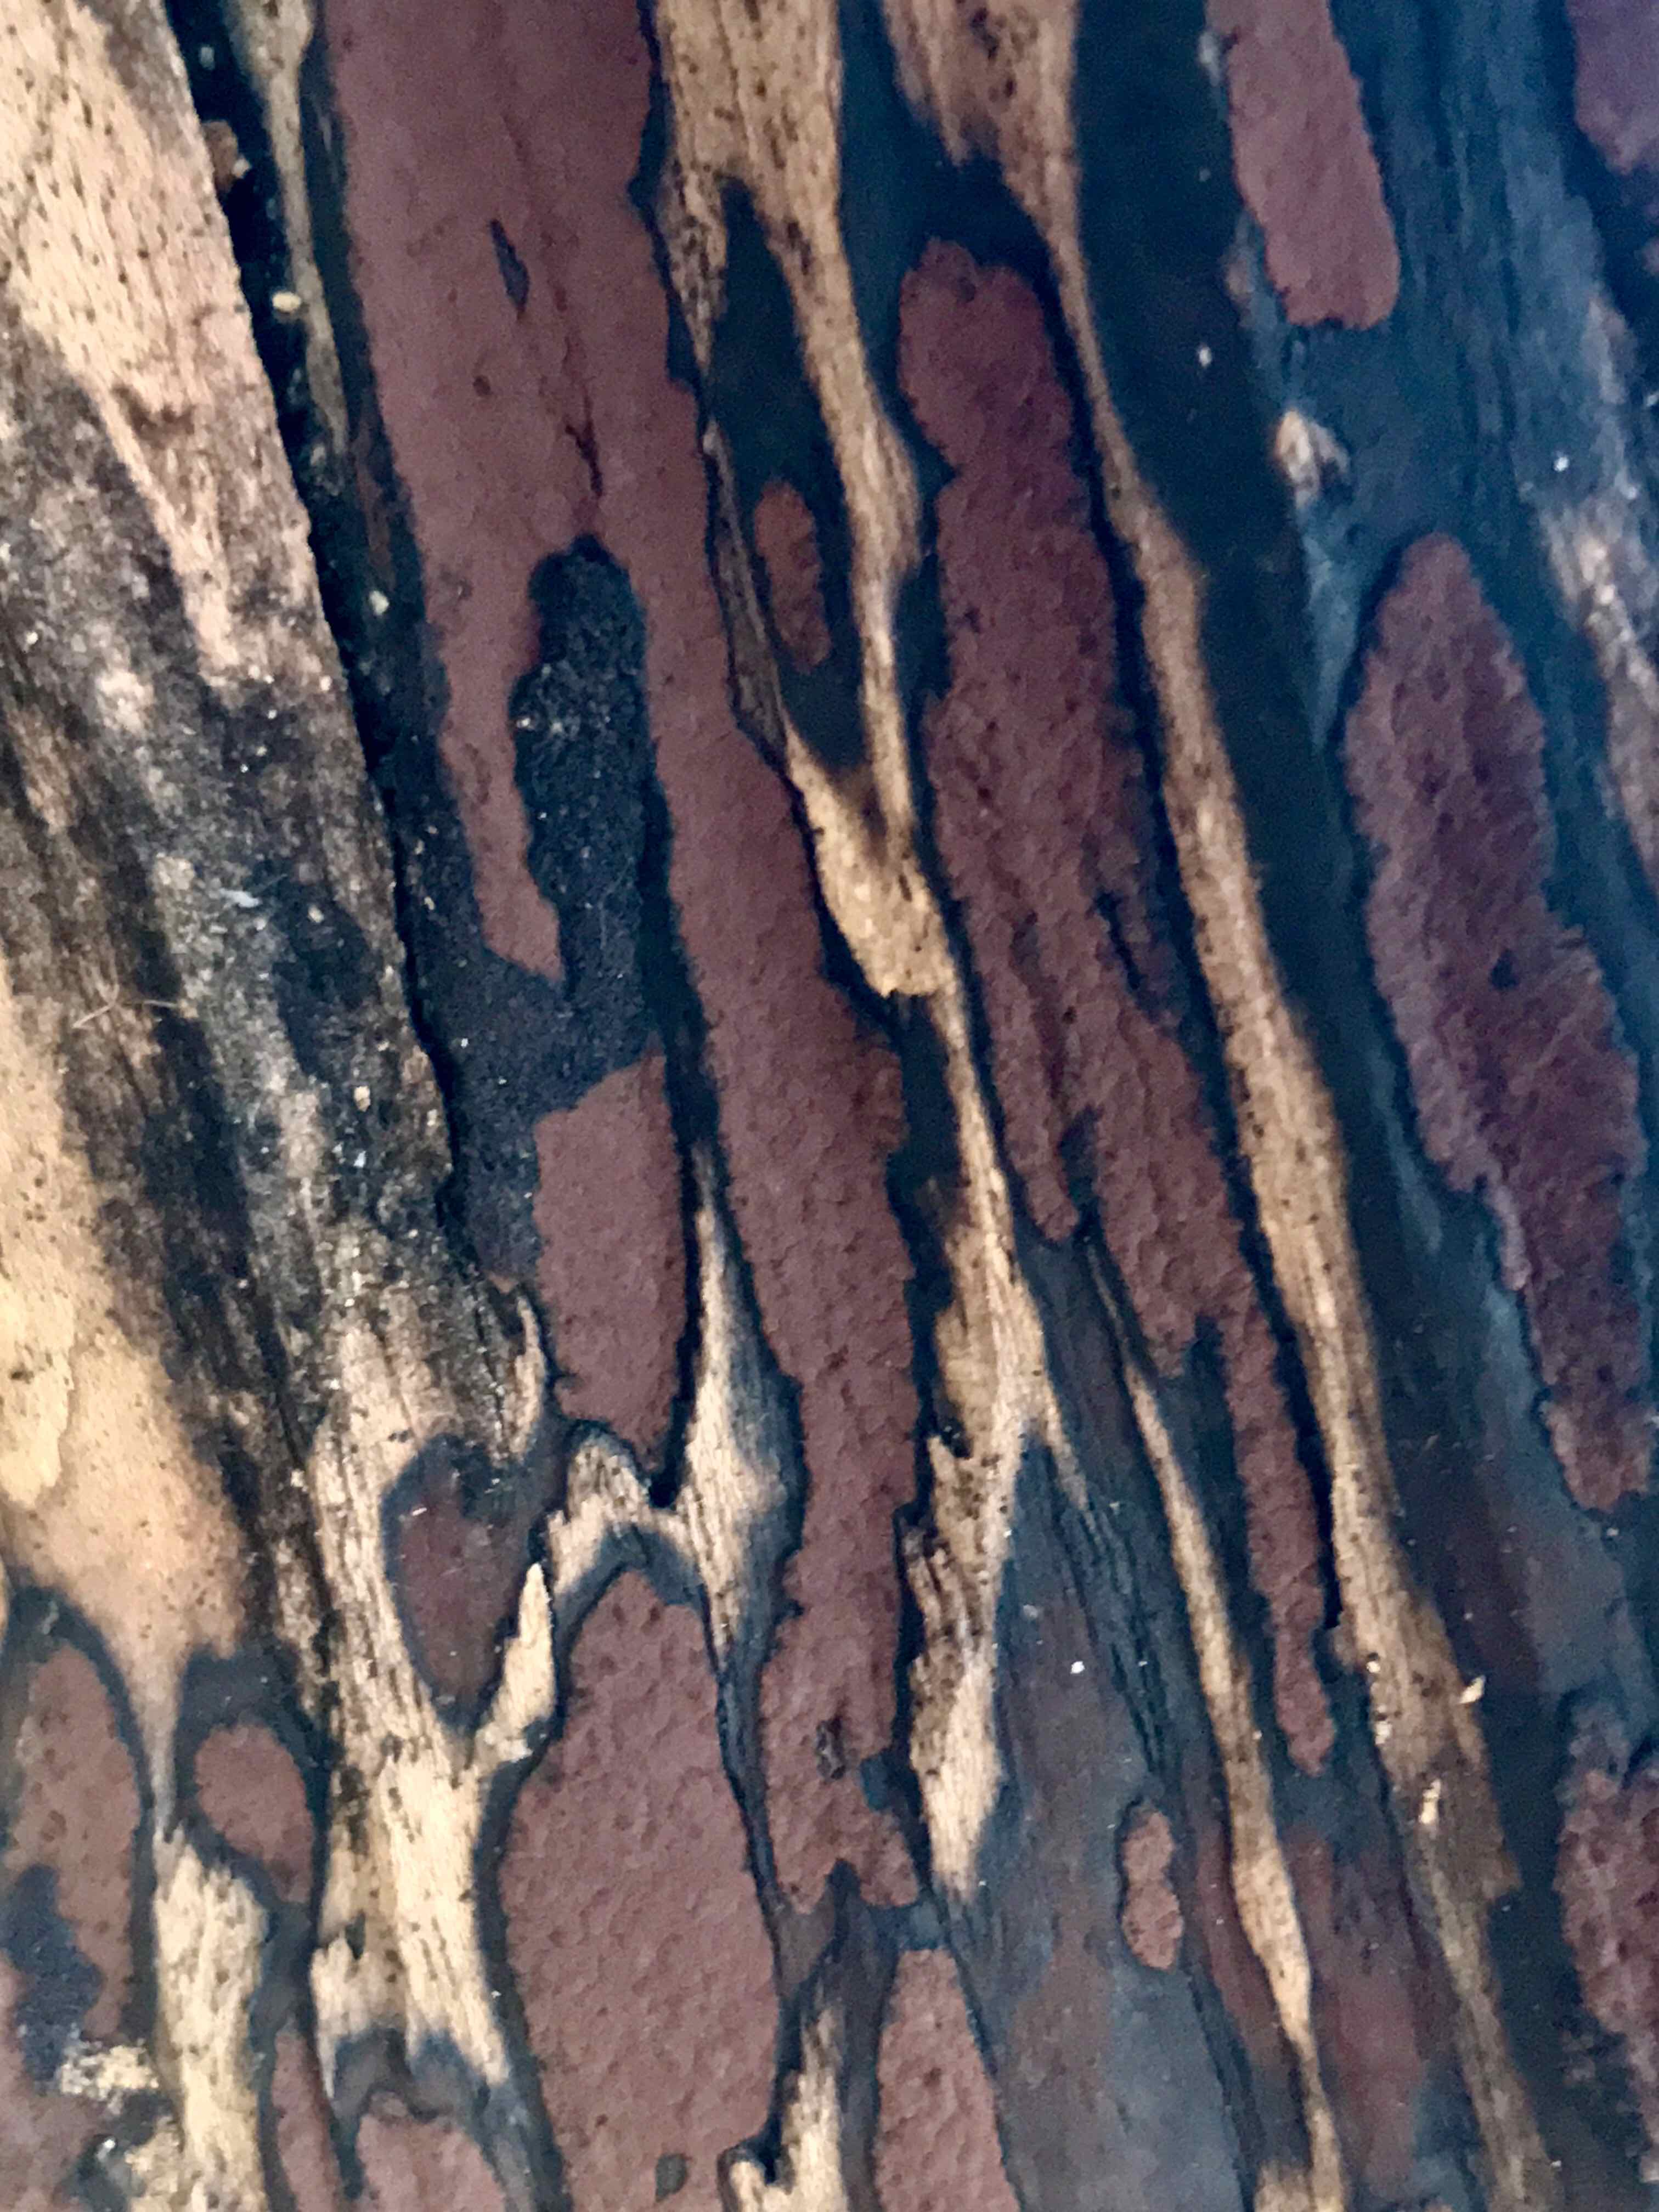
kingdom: Fungi
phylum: Ascomycota
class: Sordariomycetes
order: Xylariales
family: Hypoxylaceae
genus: Hypoxylon
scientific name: Hypoxylon petriniae
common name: nedsænket kulbær
